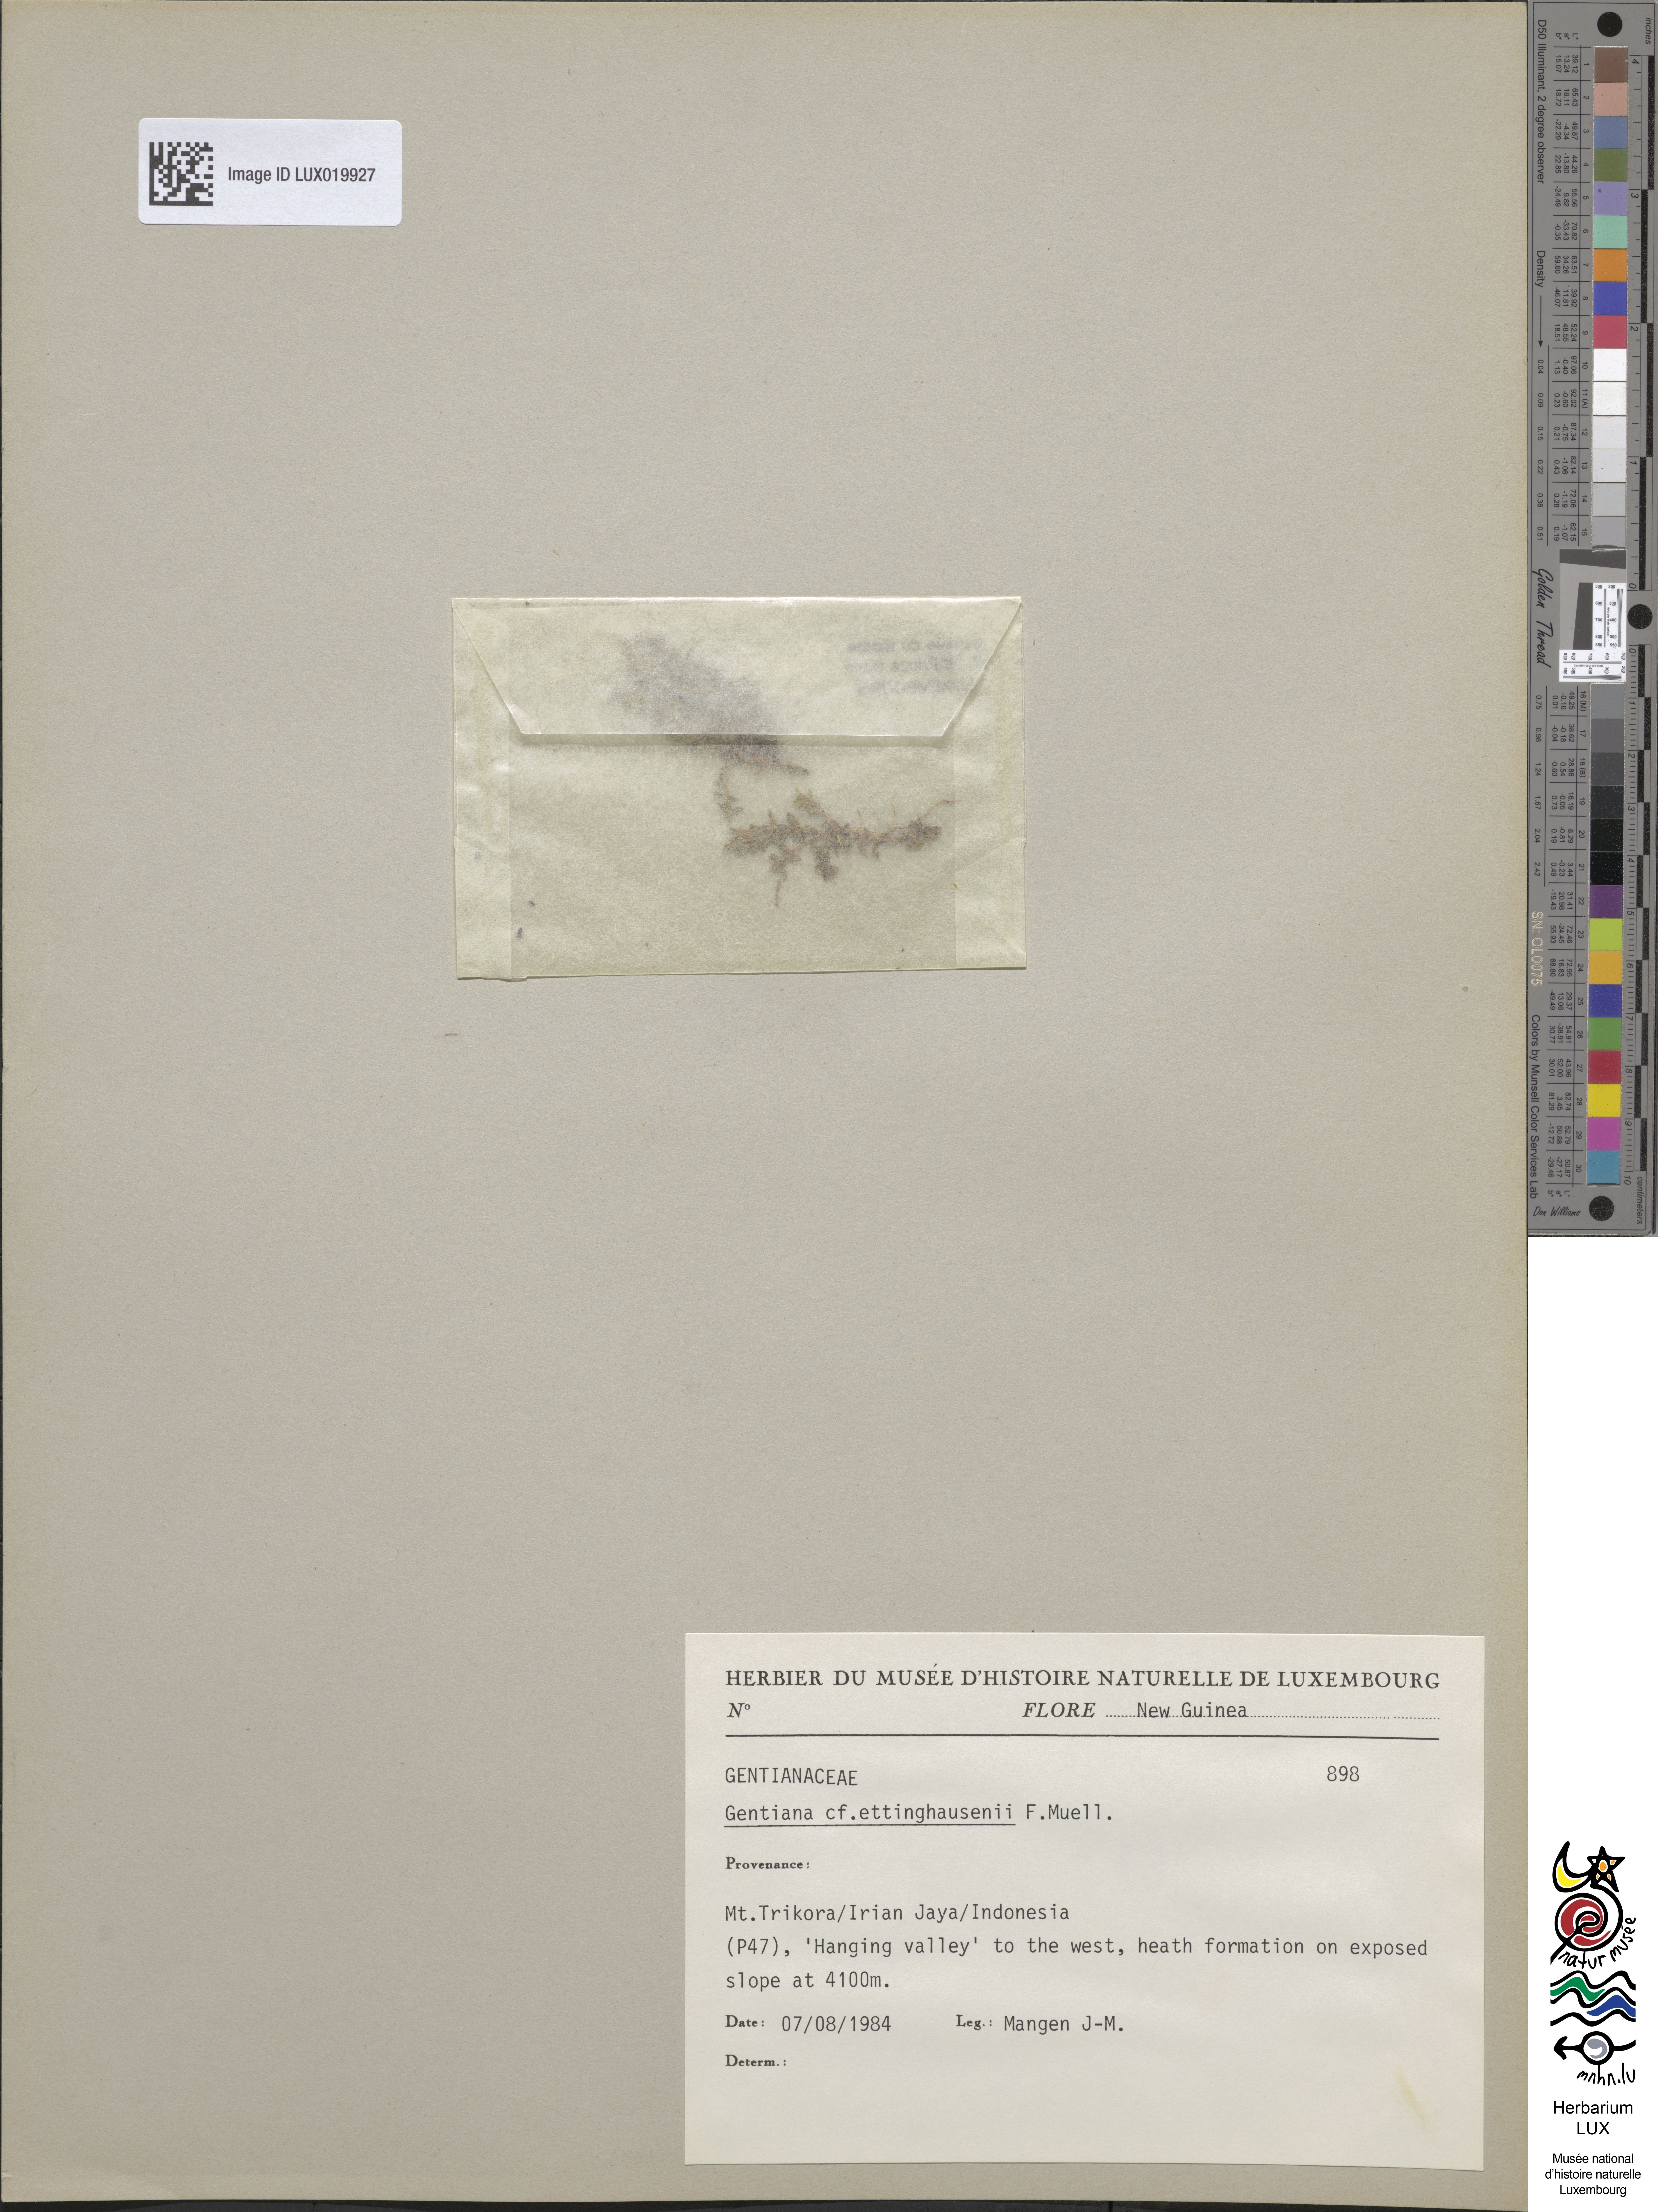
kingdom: Plantae
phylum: Tracheophyta
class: Magnoliopsida
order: Gentianales
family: Gentianaceae
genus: Gentiana
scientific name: Gentiana ettingshausenii
